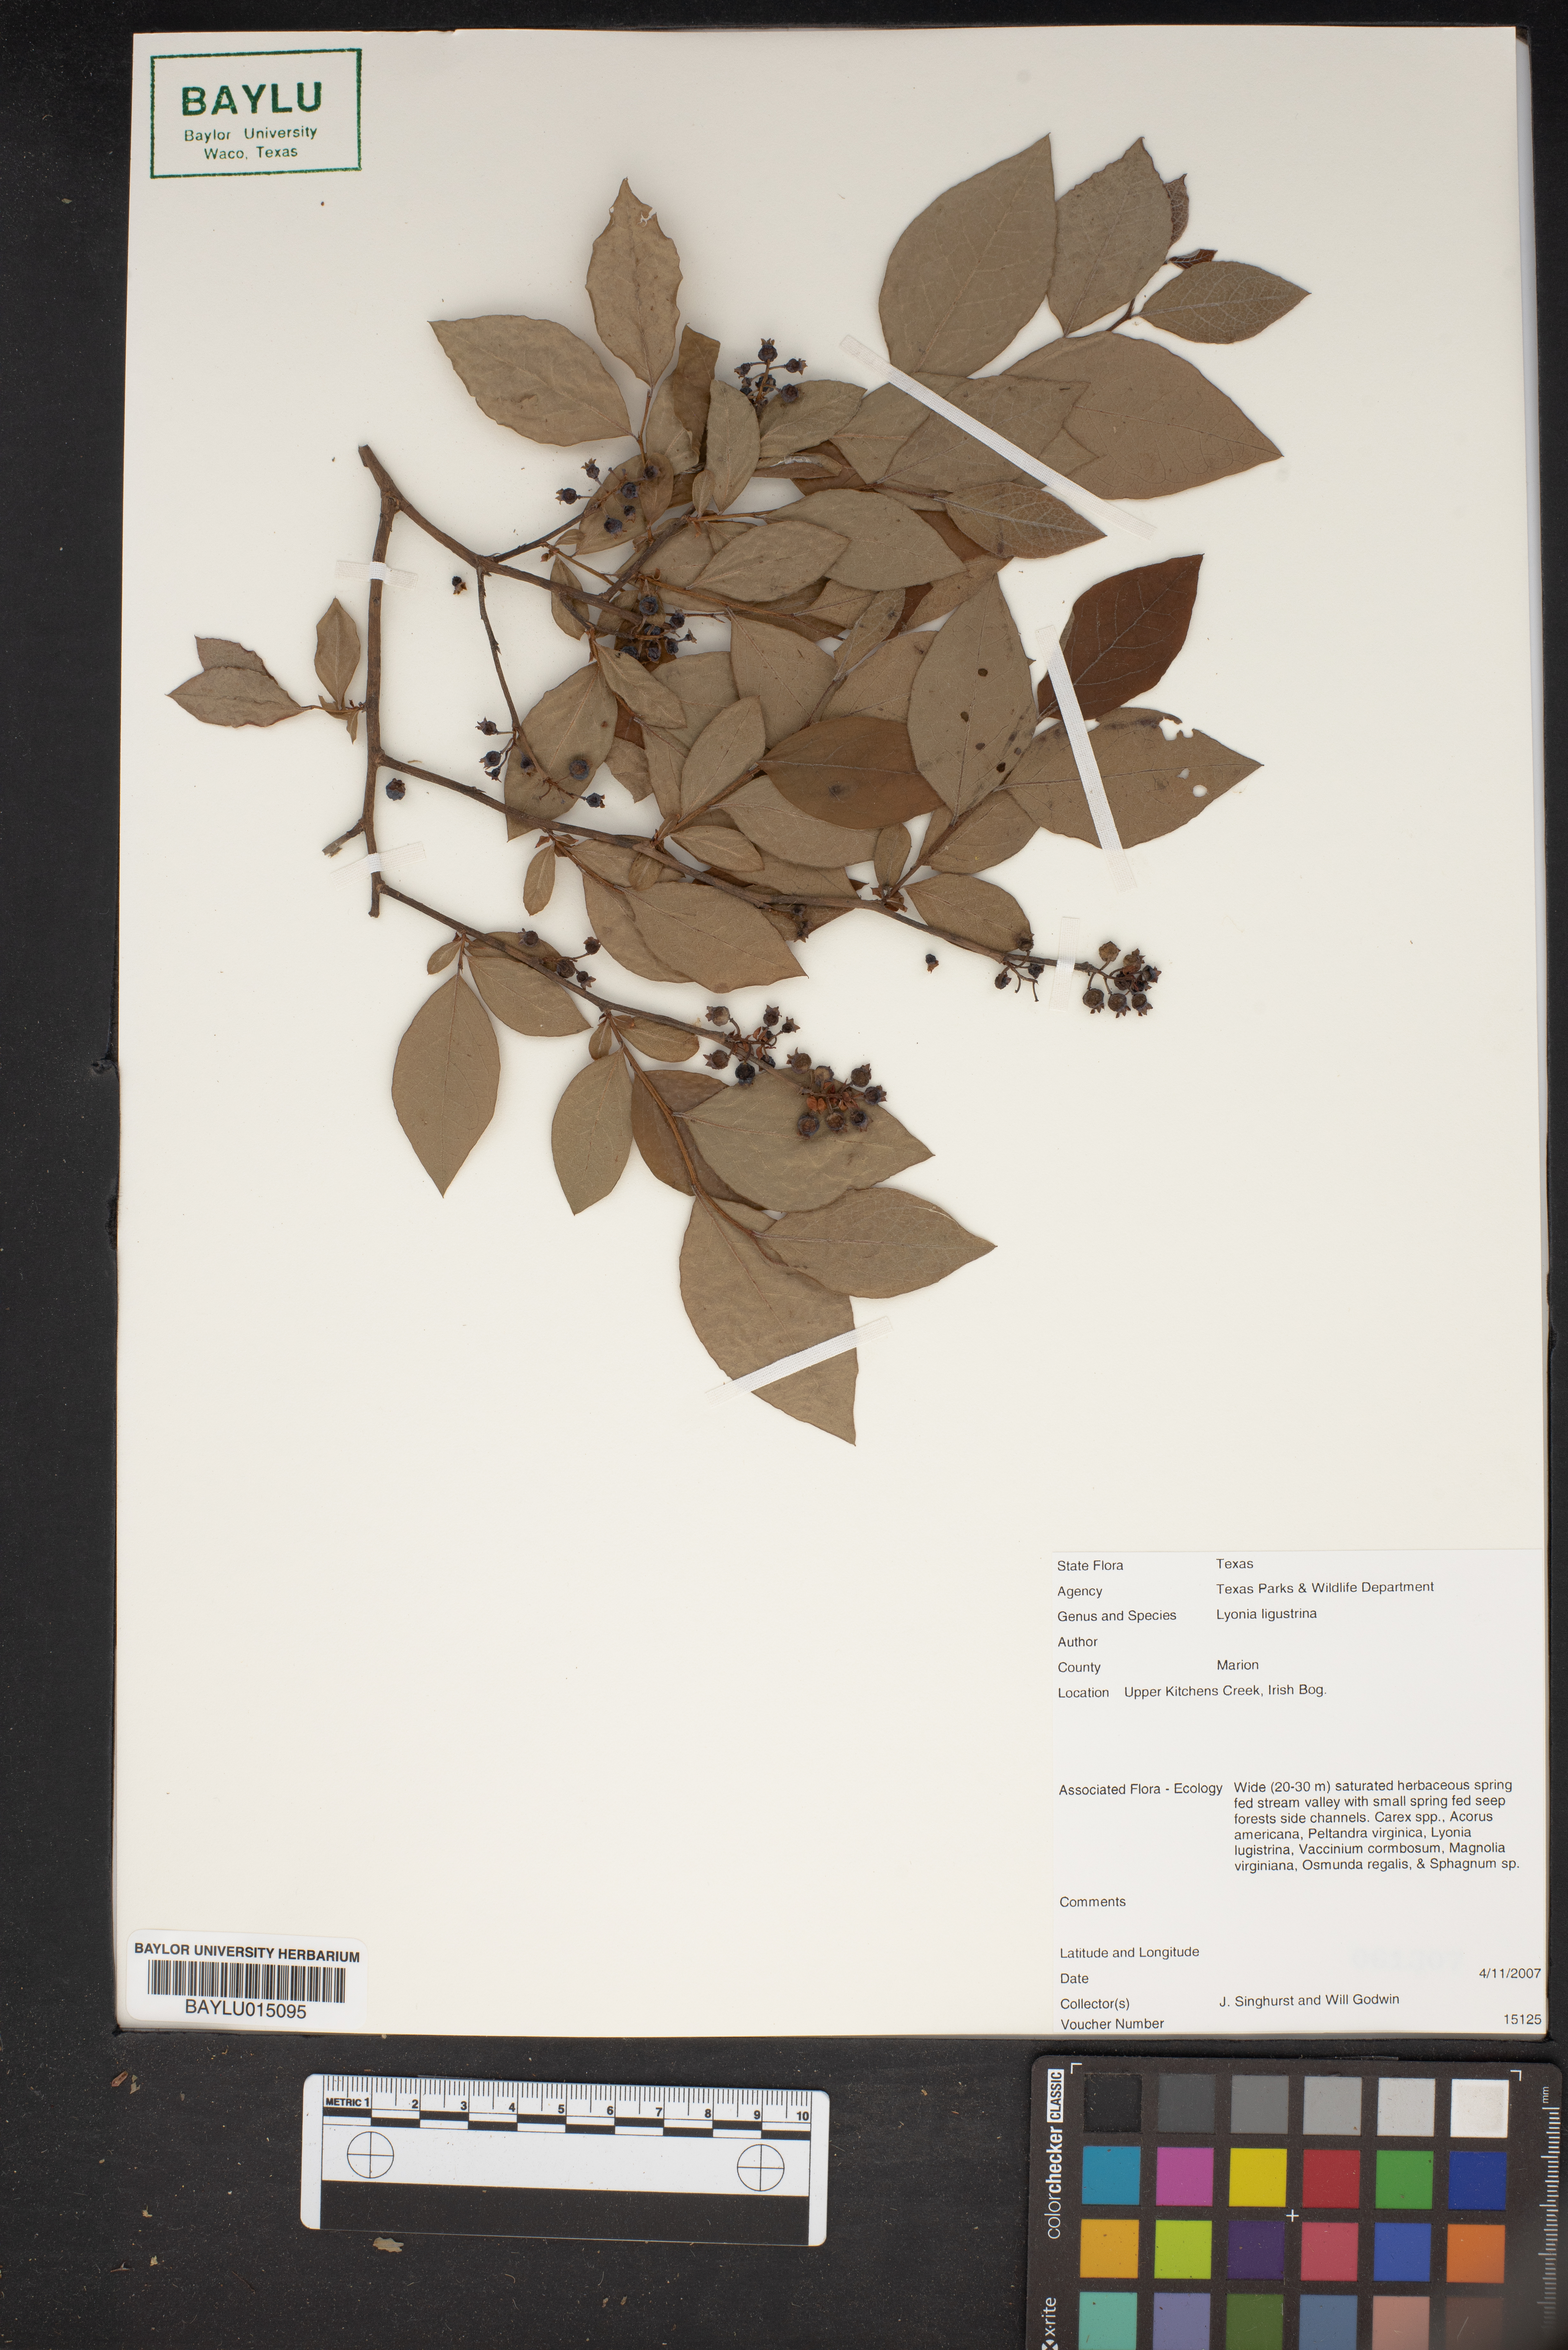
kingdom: Plantae
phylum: Tracheophyta
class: Magnoliopsida
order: Ericales
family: Ericaceae
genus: Lyonia
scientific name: Lyonia ligustrina
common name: Maleberry
